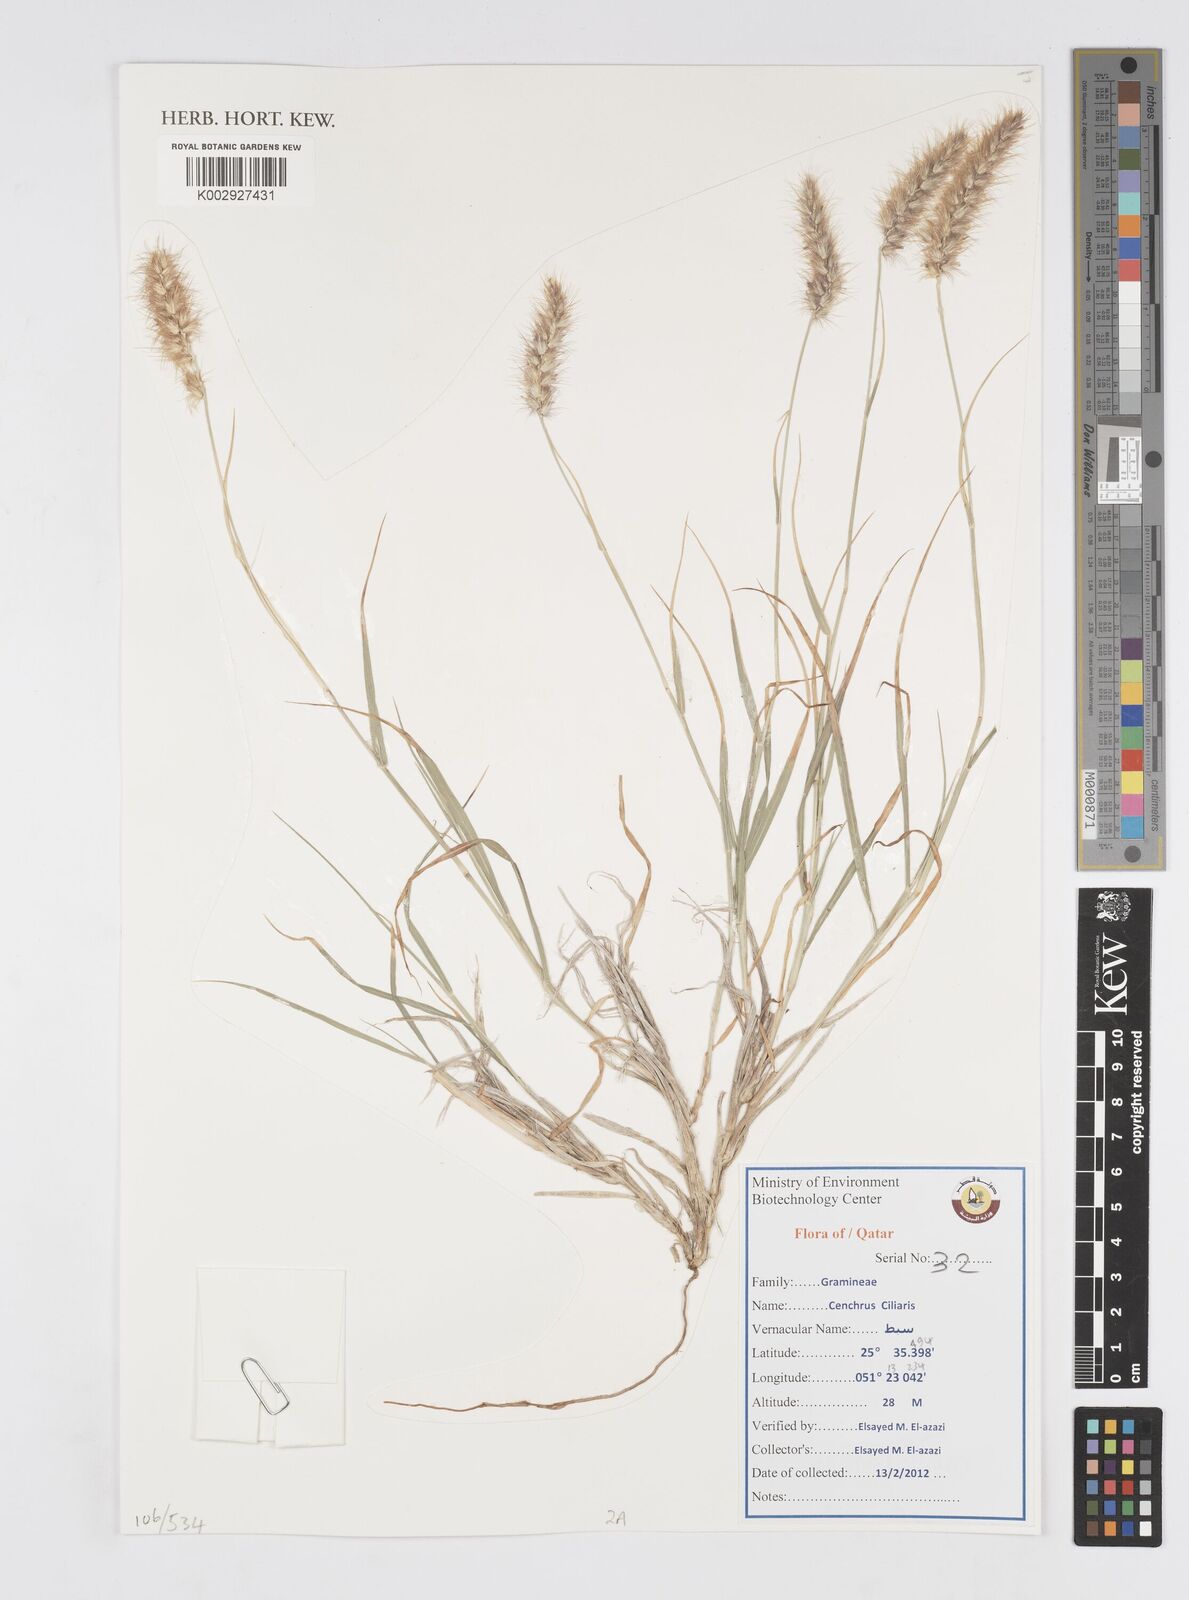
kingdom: Plantae
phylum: Tracheophyta
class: Liliopsida
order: Poales
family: Poaceae
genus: Cenchrus
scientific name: Cenchrus
